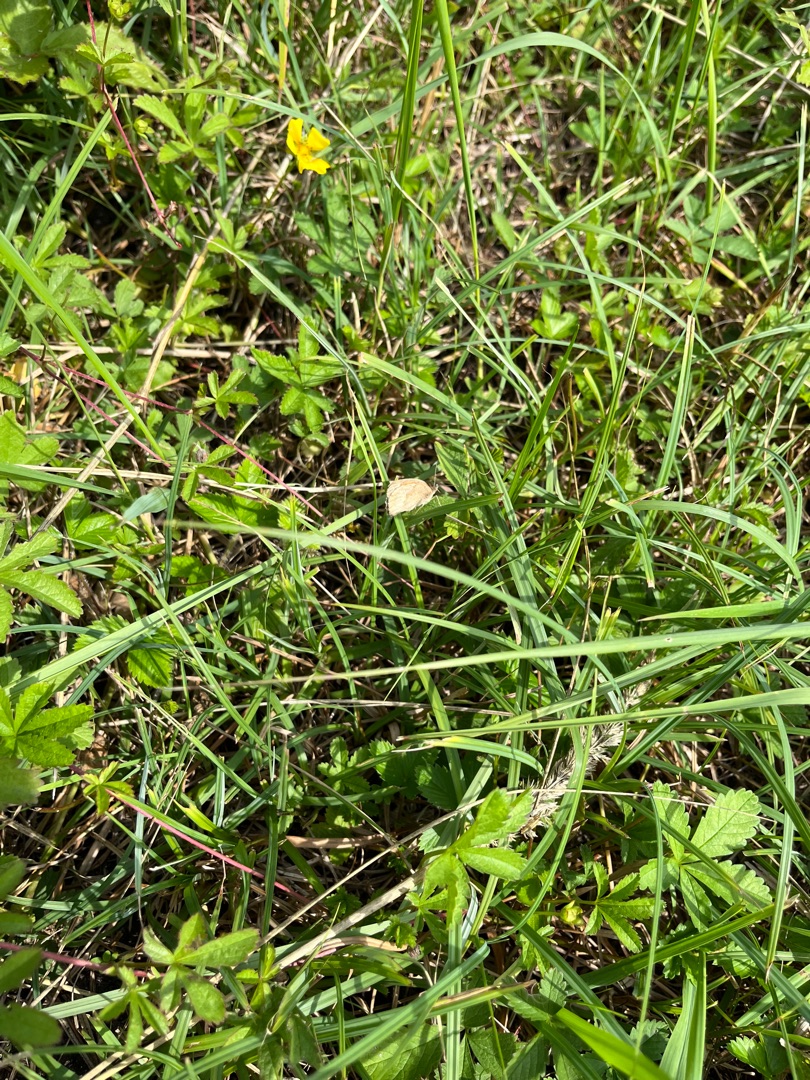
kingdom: Animalia
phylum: Arthropoda
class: Insecta
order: Lepidoptera
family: Nymphalidae
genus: Maniola
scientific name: Maniola jurtina
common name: Græsrandøje
